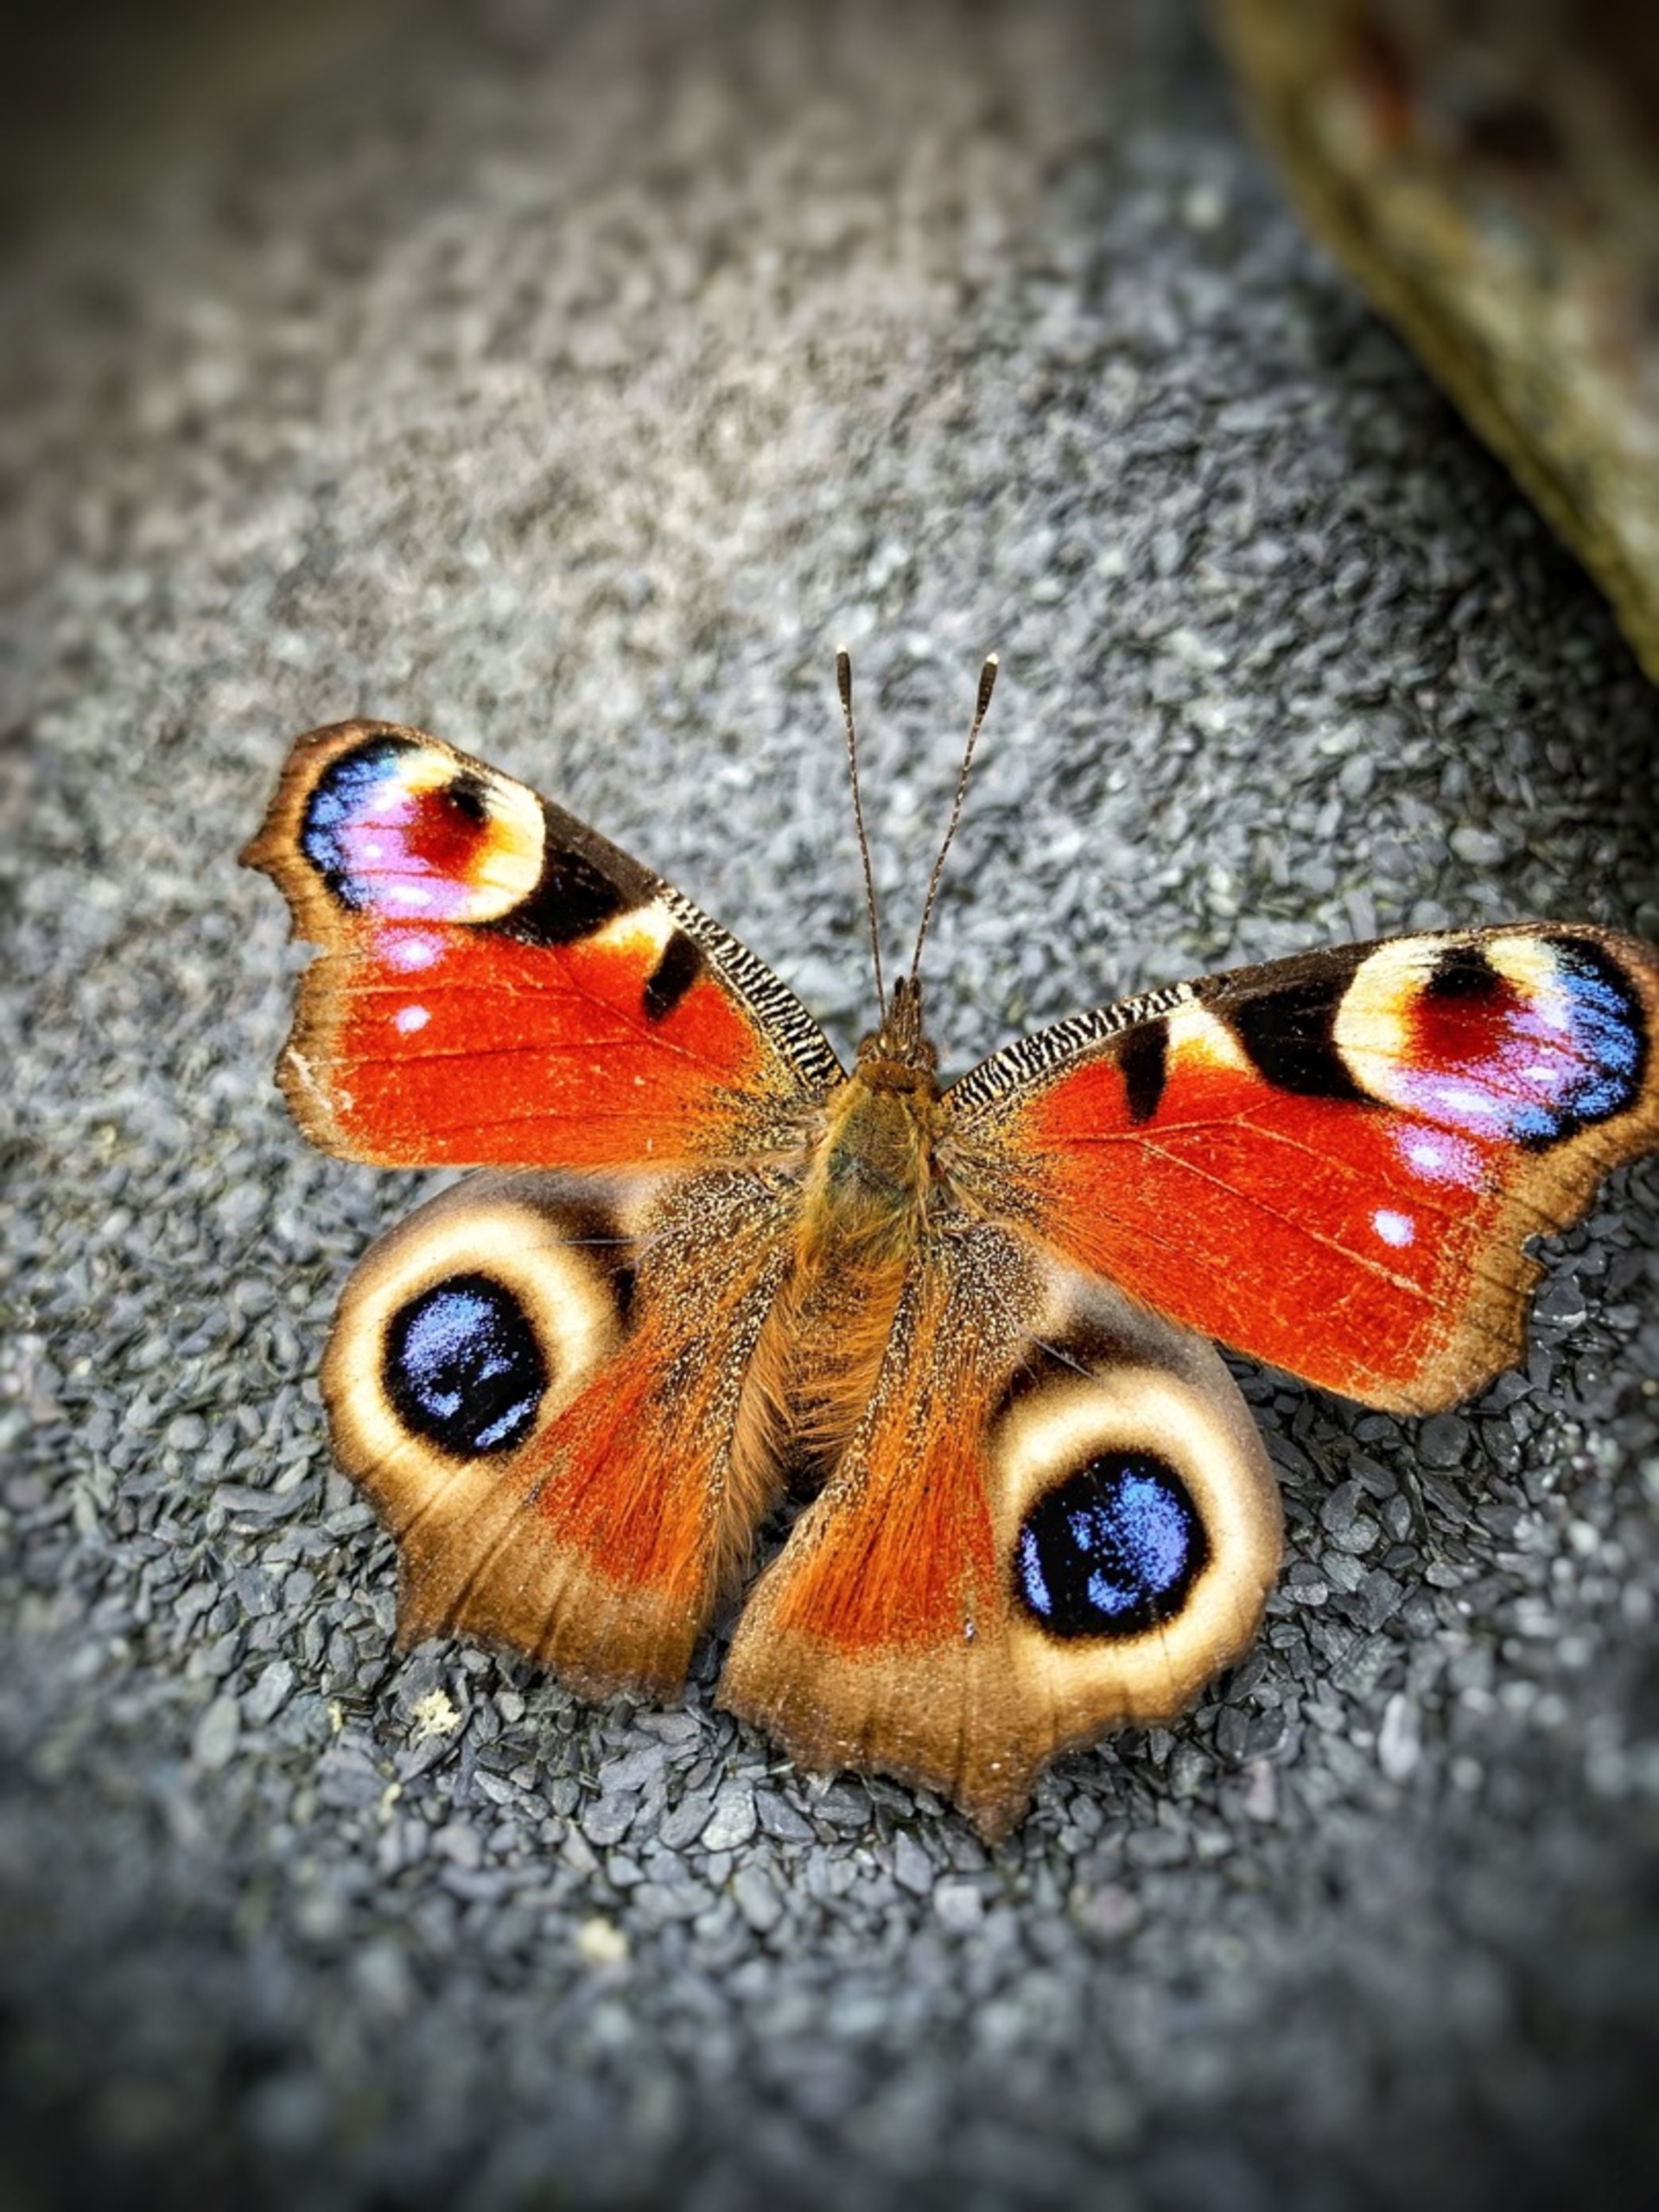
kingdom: Animalia
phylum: Arthropoda
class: Insecta
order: Lepidoptera
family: Nymphalidae
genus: Aglais
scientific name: Aglais io
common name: Dagpåfugleøje
